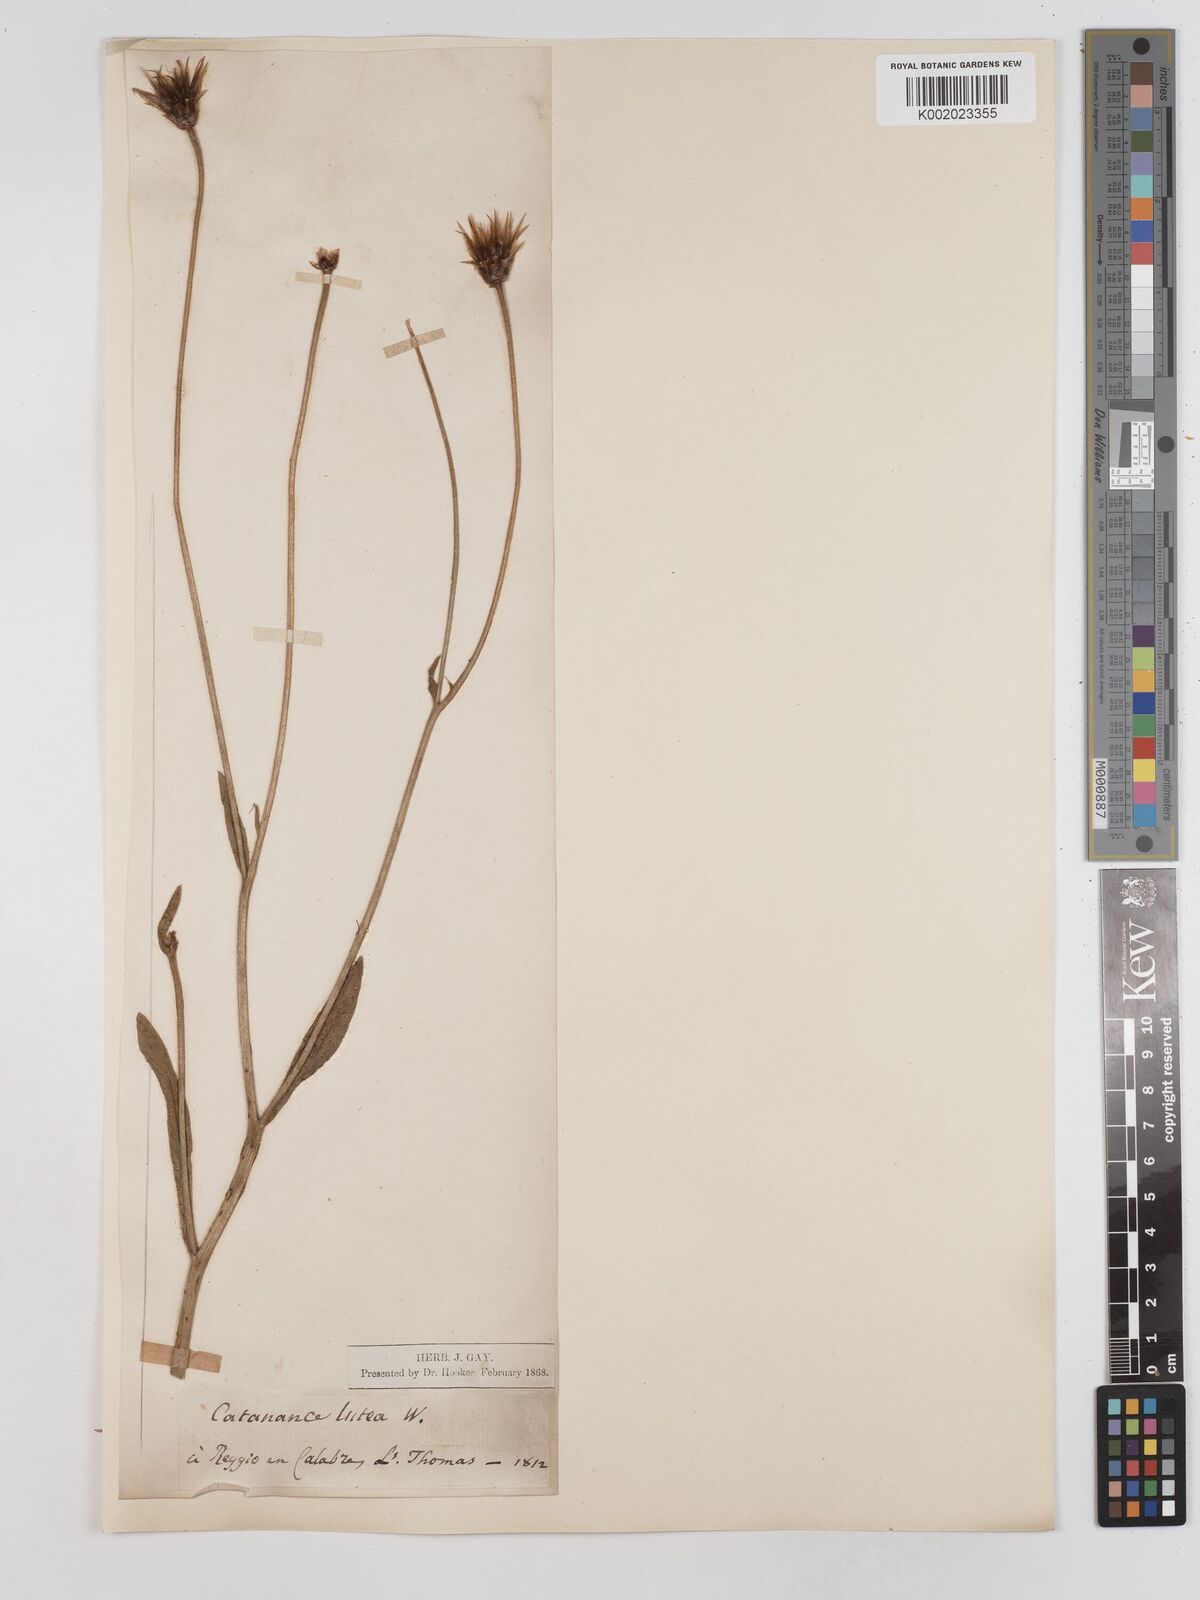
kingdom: Plantae
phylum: Tracheophyta
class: Magnoliopsida
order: Asterales
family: Asteraceae
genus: Catananche
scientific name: Catananche lutea
